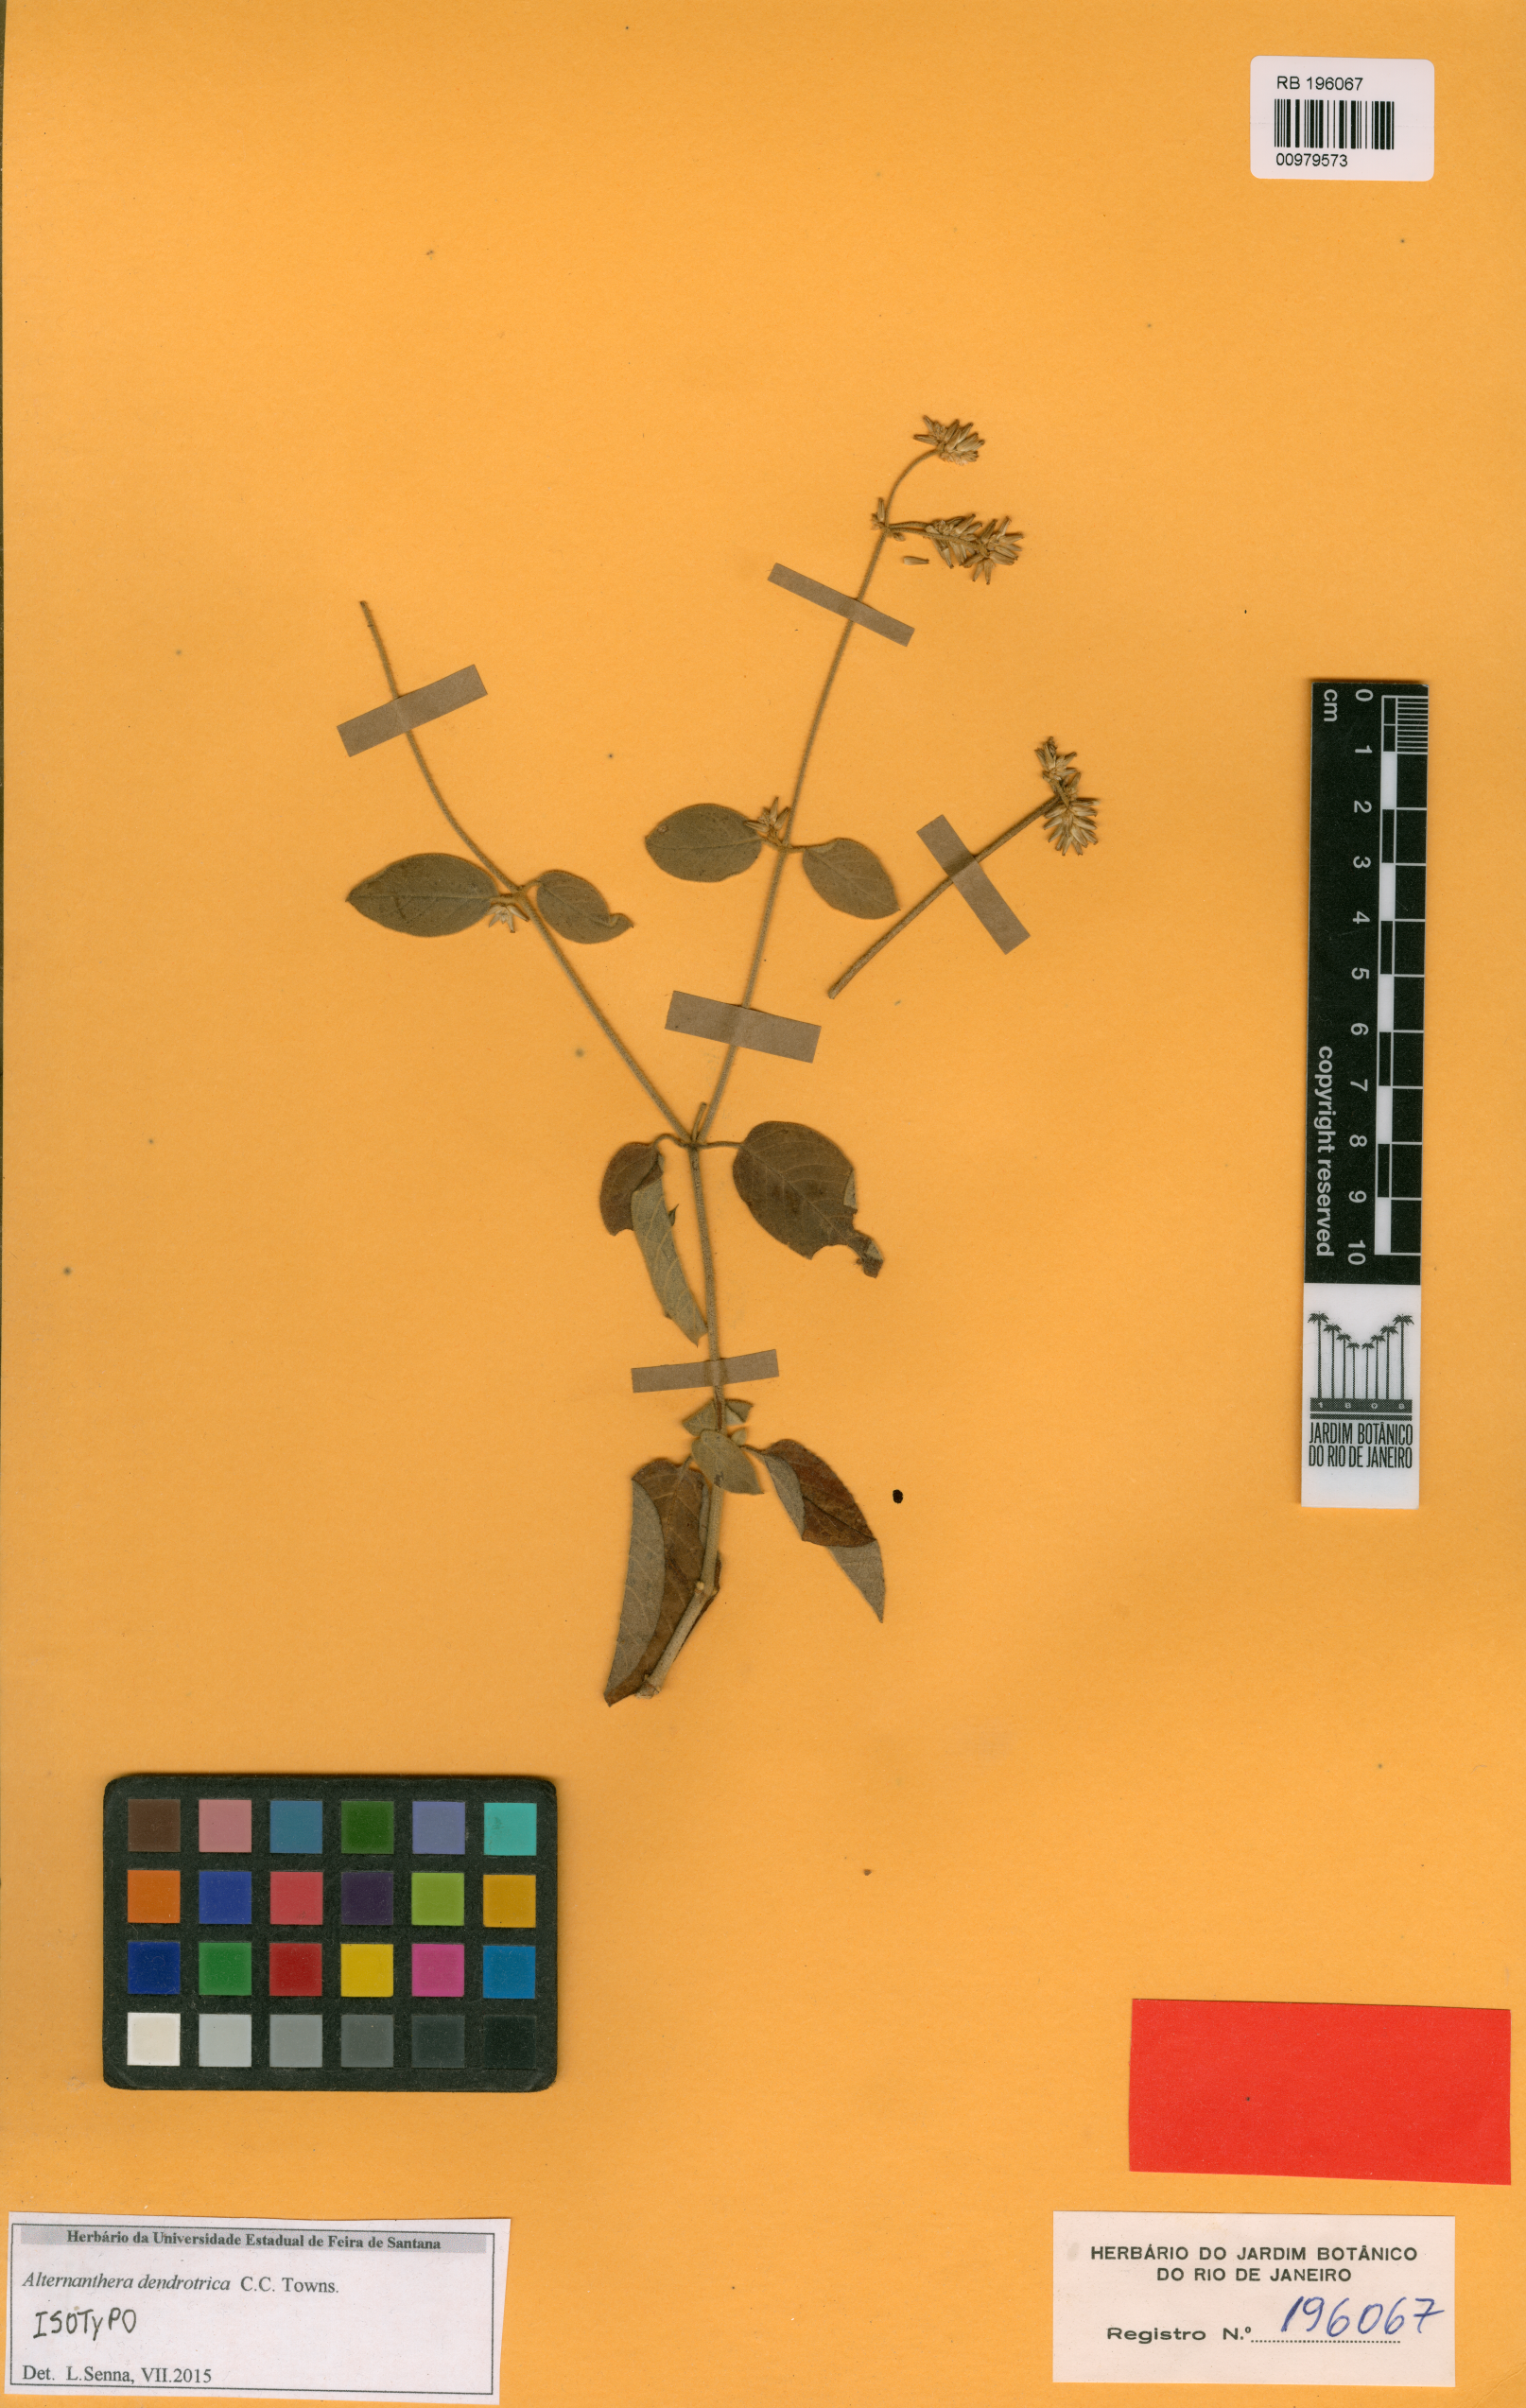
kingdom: Plantae
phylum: Tracheophyta
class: Magnoliopsida
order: Caryophyllales
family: Amaranthaceae
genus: Alternanthera
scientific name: Alternanthera dendrotricha
